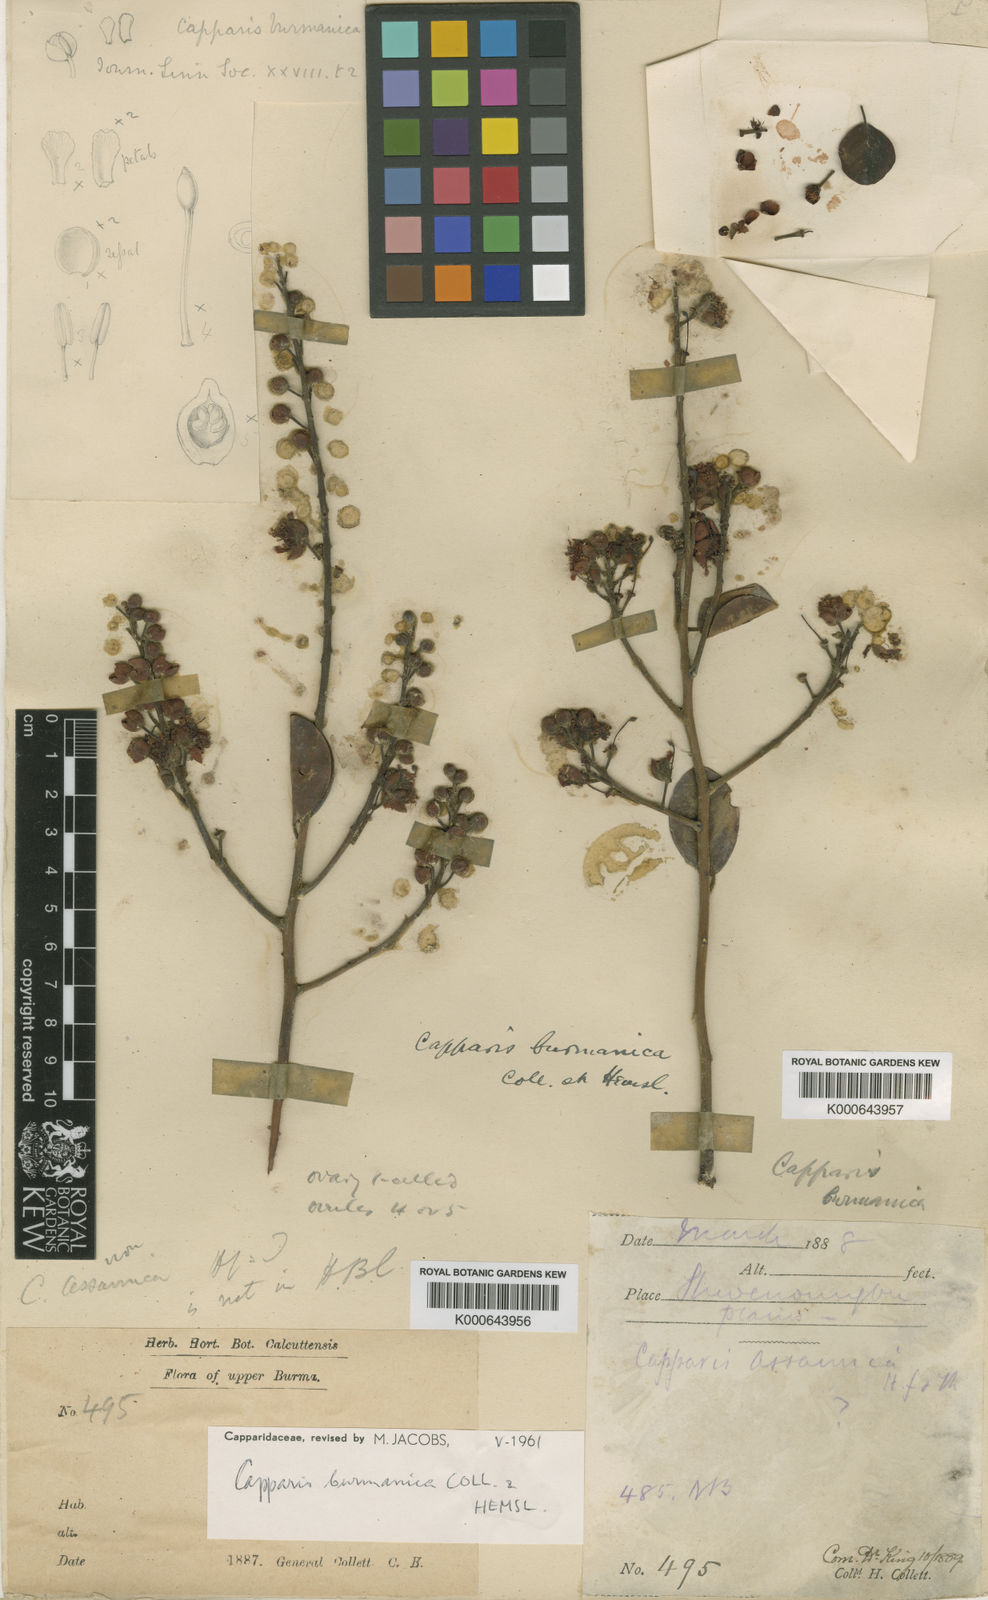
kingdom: Plantae
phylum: Tracheophyta
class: Magnoliopsida
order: Brassicales
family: Capparaceae
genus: Capparis
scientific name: Capparis burmanica
